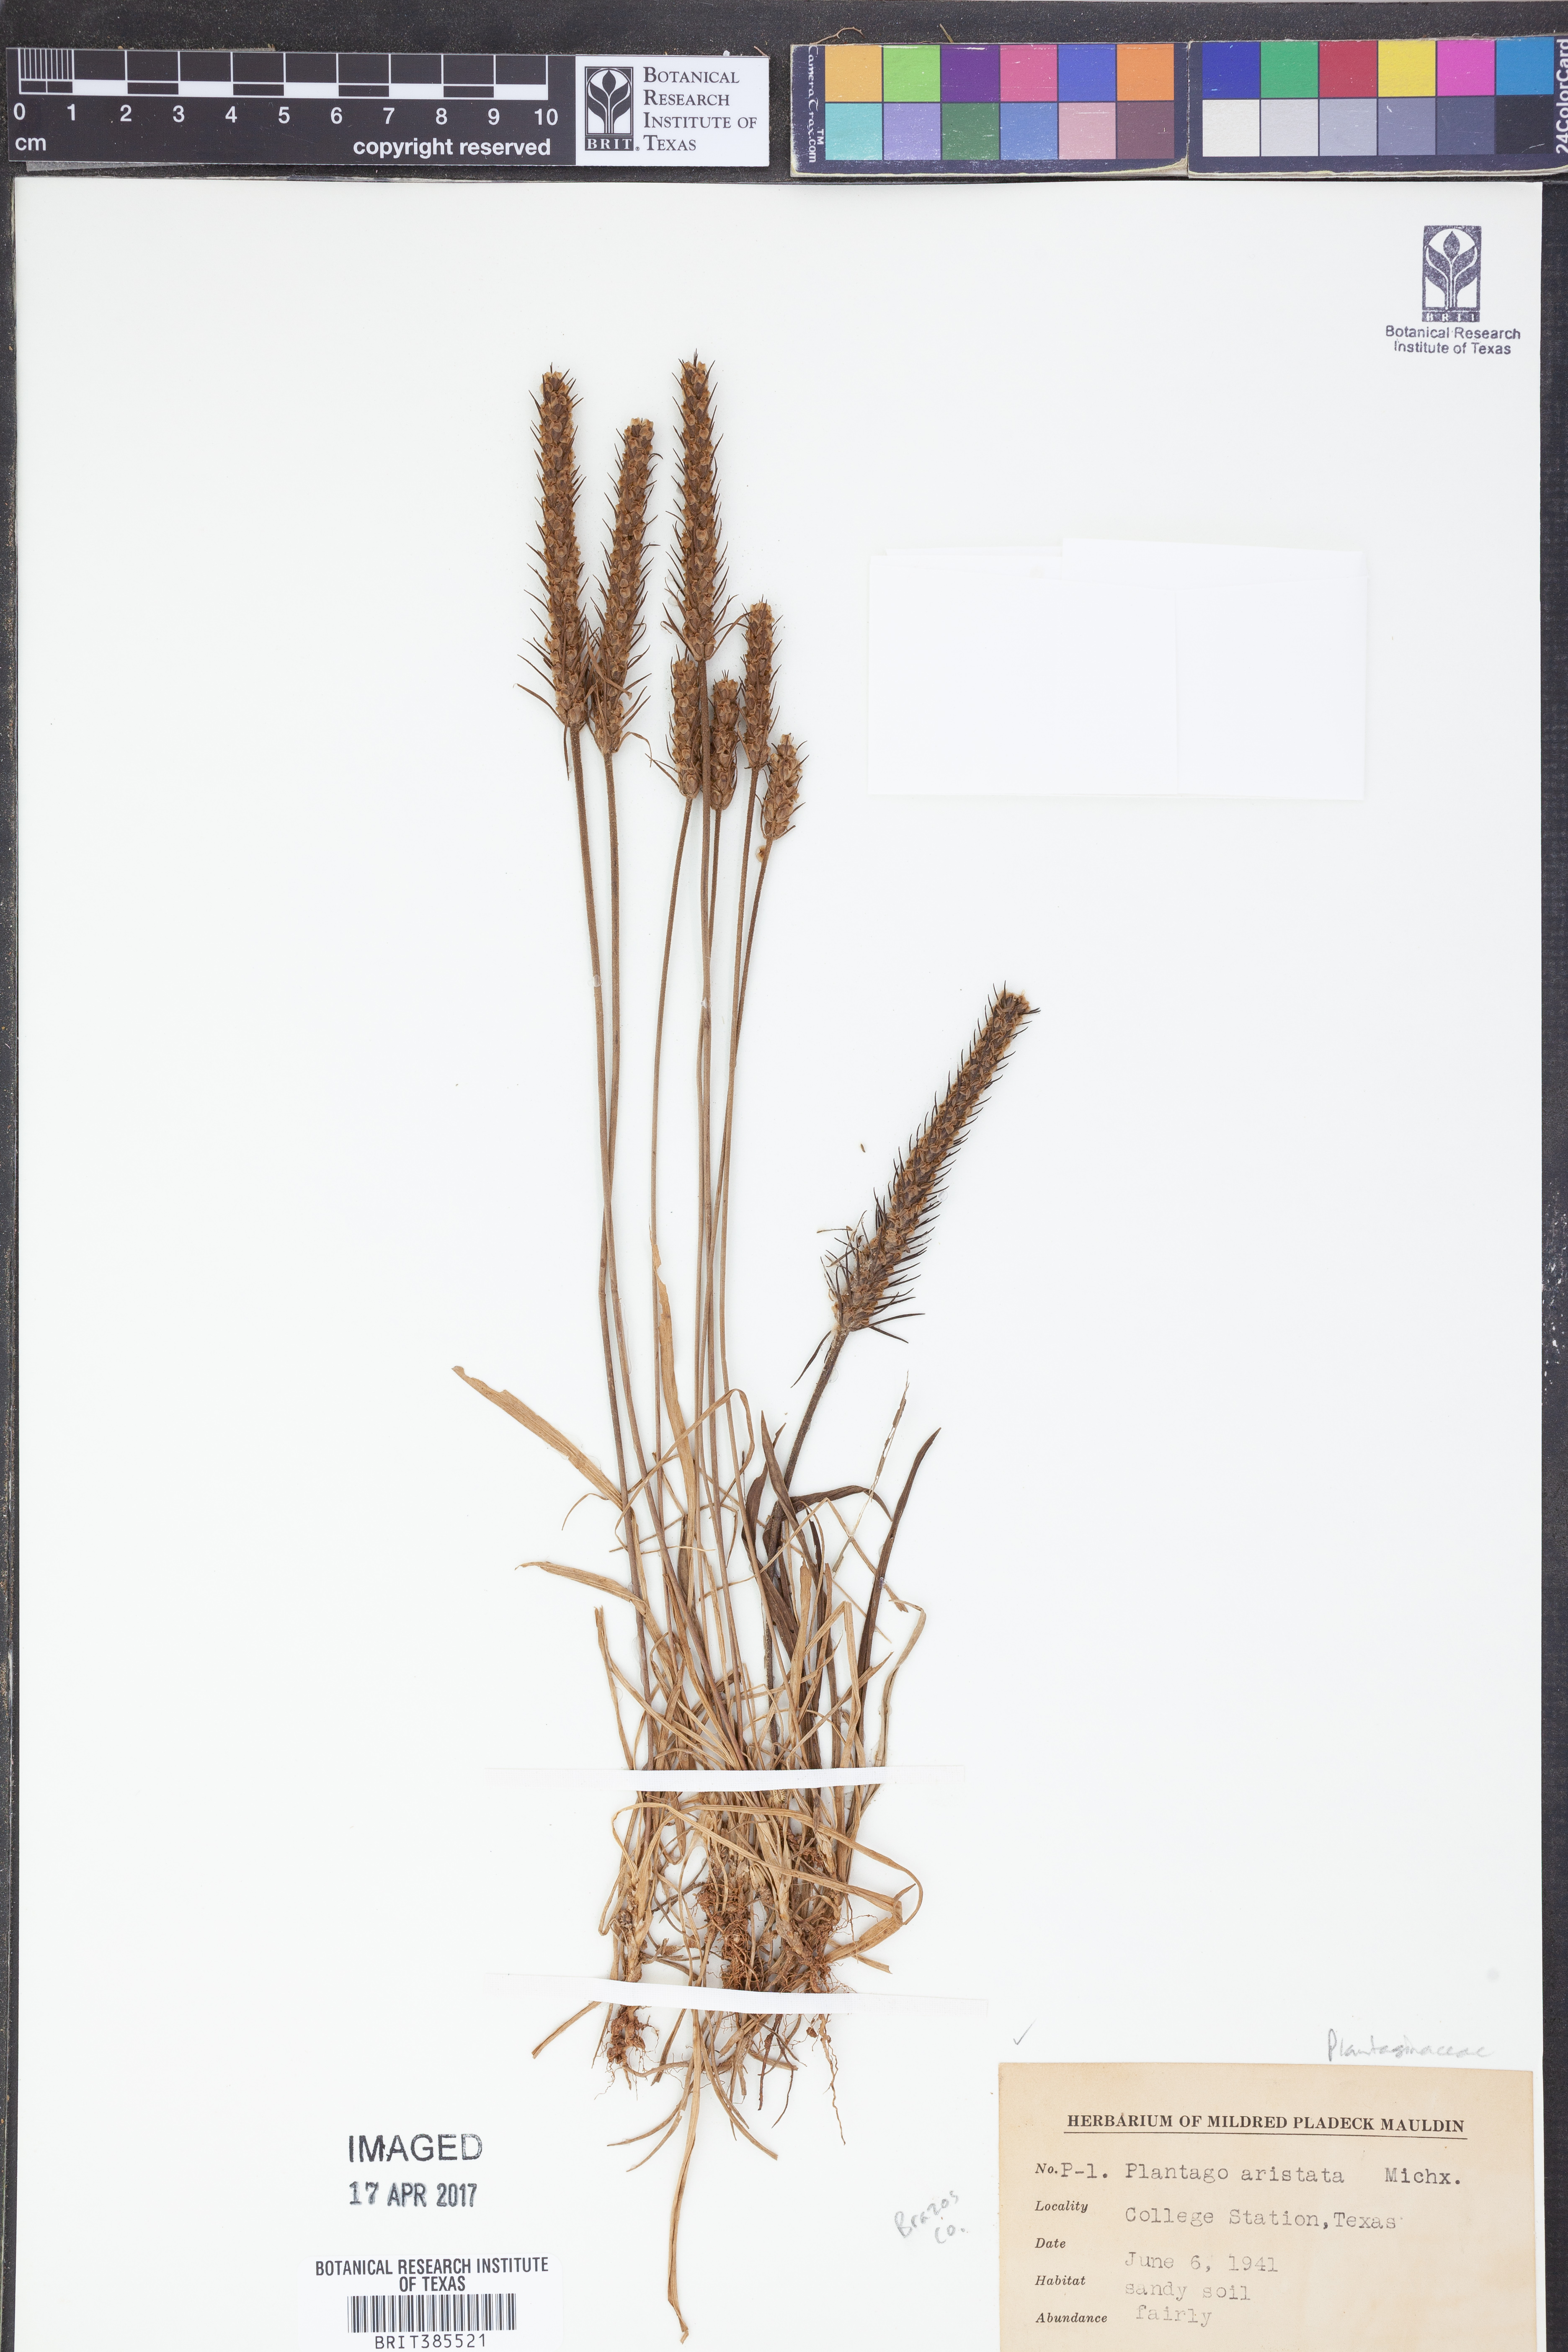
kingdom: Plantae
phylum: Tracheophyta
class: Magnoliopsida
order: Lamiales
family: Plantaginaceae
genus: Plantago
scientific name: Plantago aristata
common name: Bracted plantain
